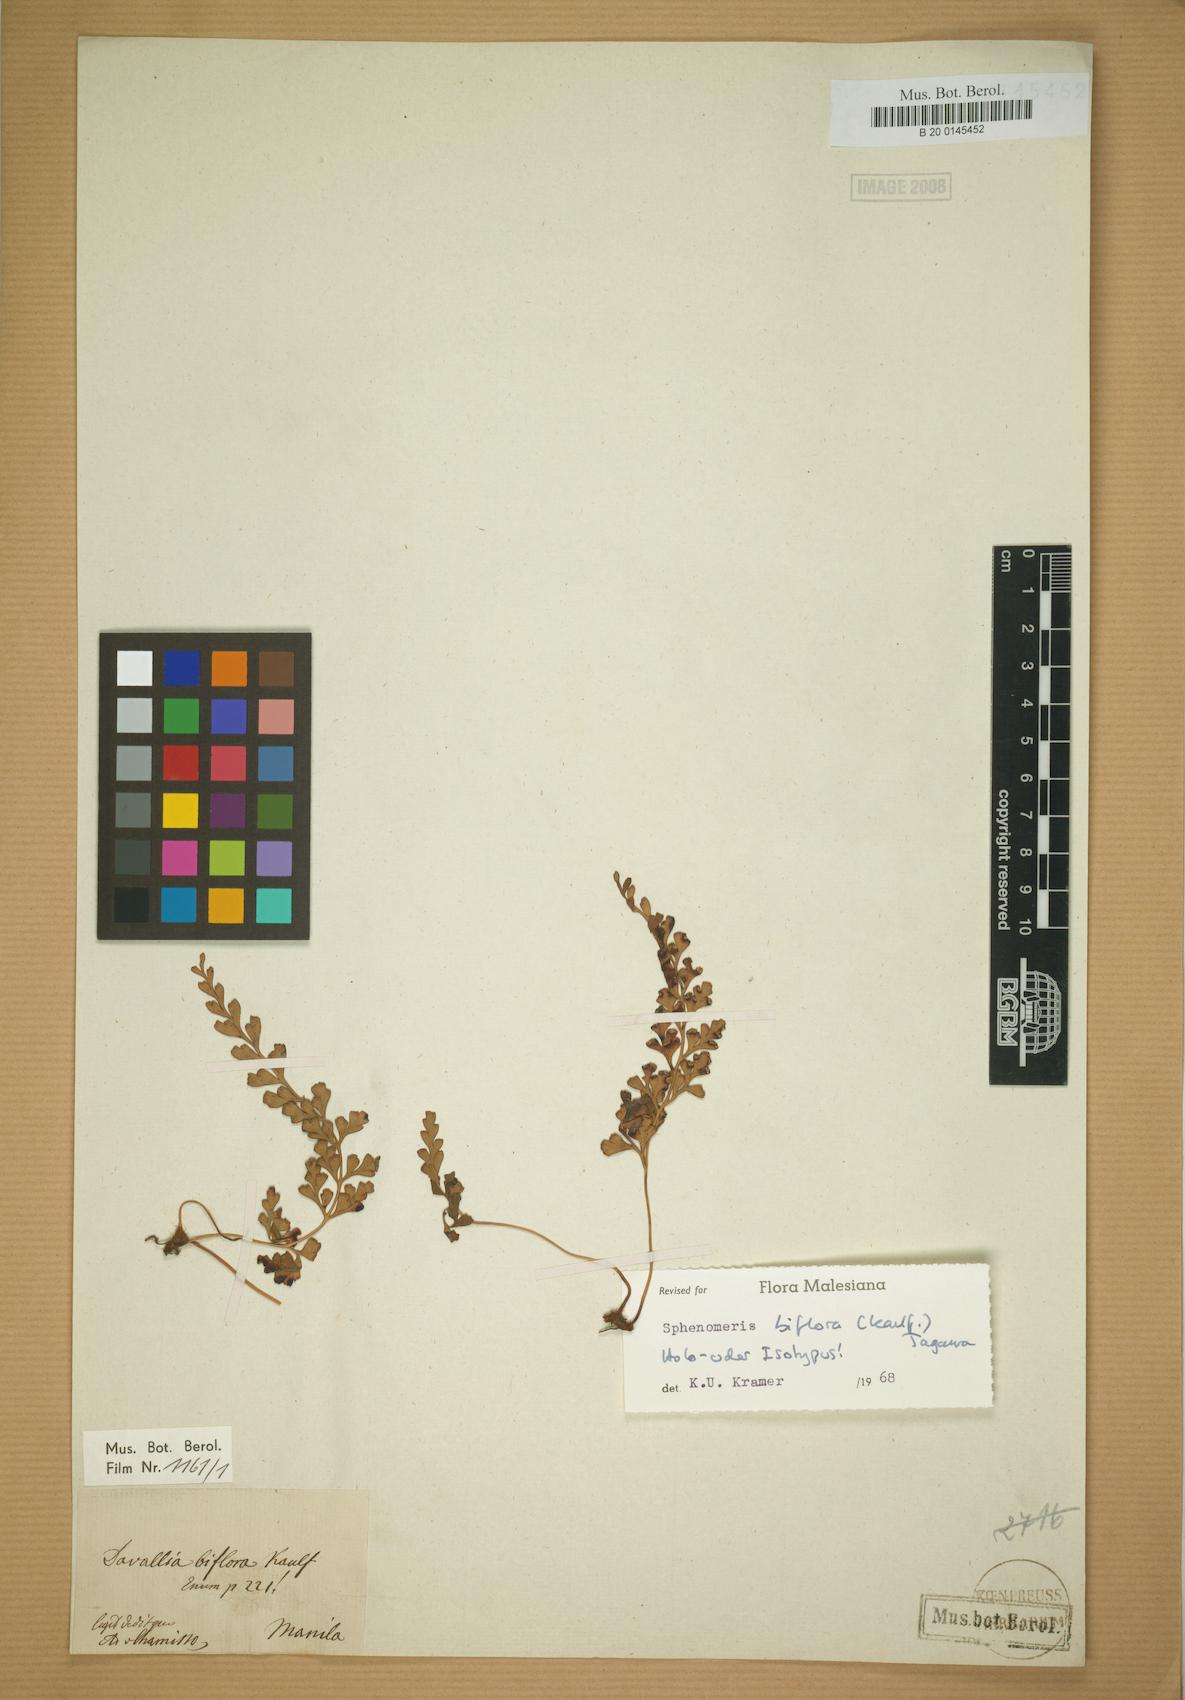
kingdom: Plantae
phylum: Tracheophyta
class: Polypodiopsida
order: Polypodiales
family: Lindsaeaceae
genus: Odontosoria
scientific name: Odontosoria biflora
